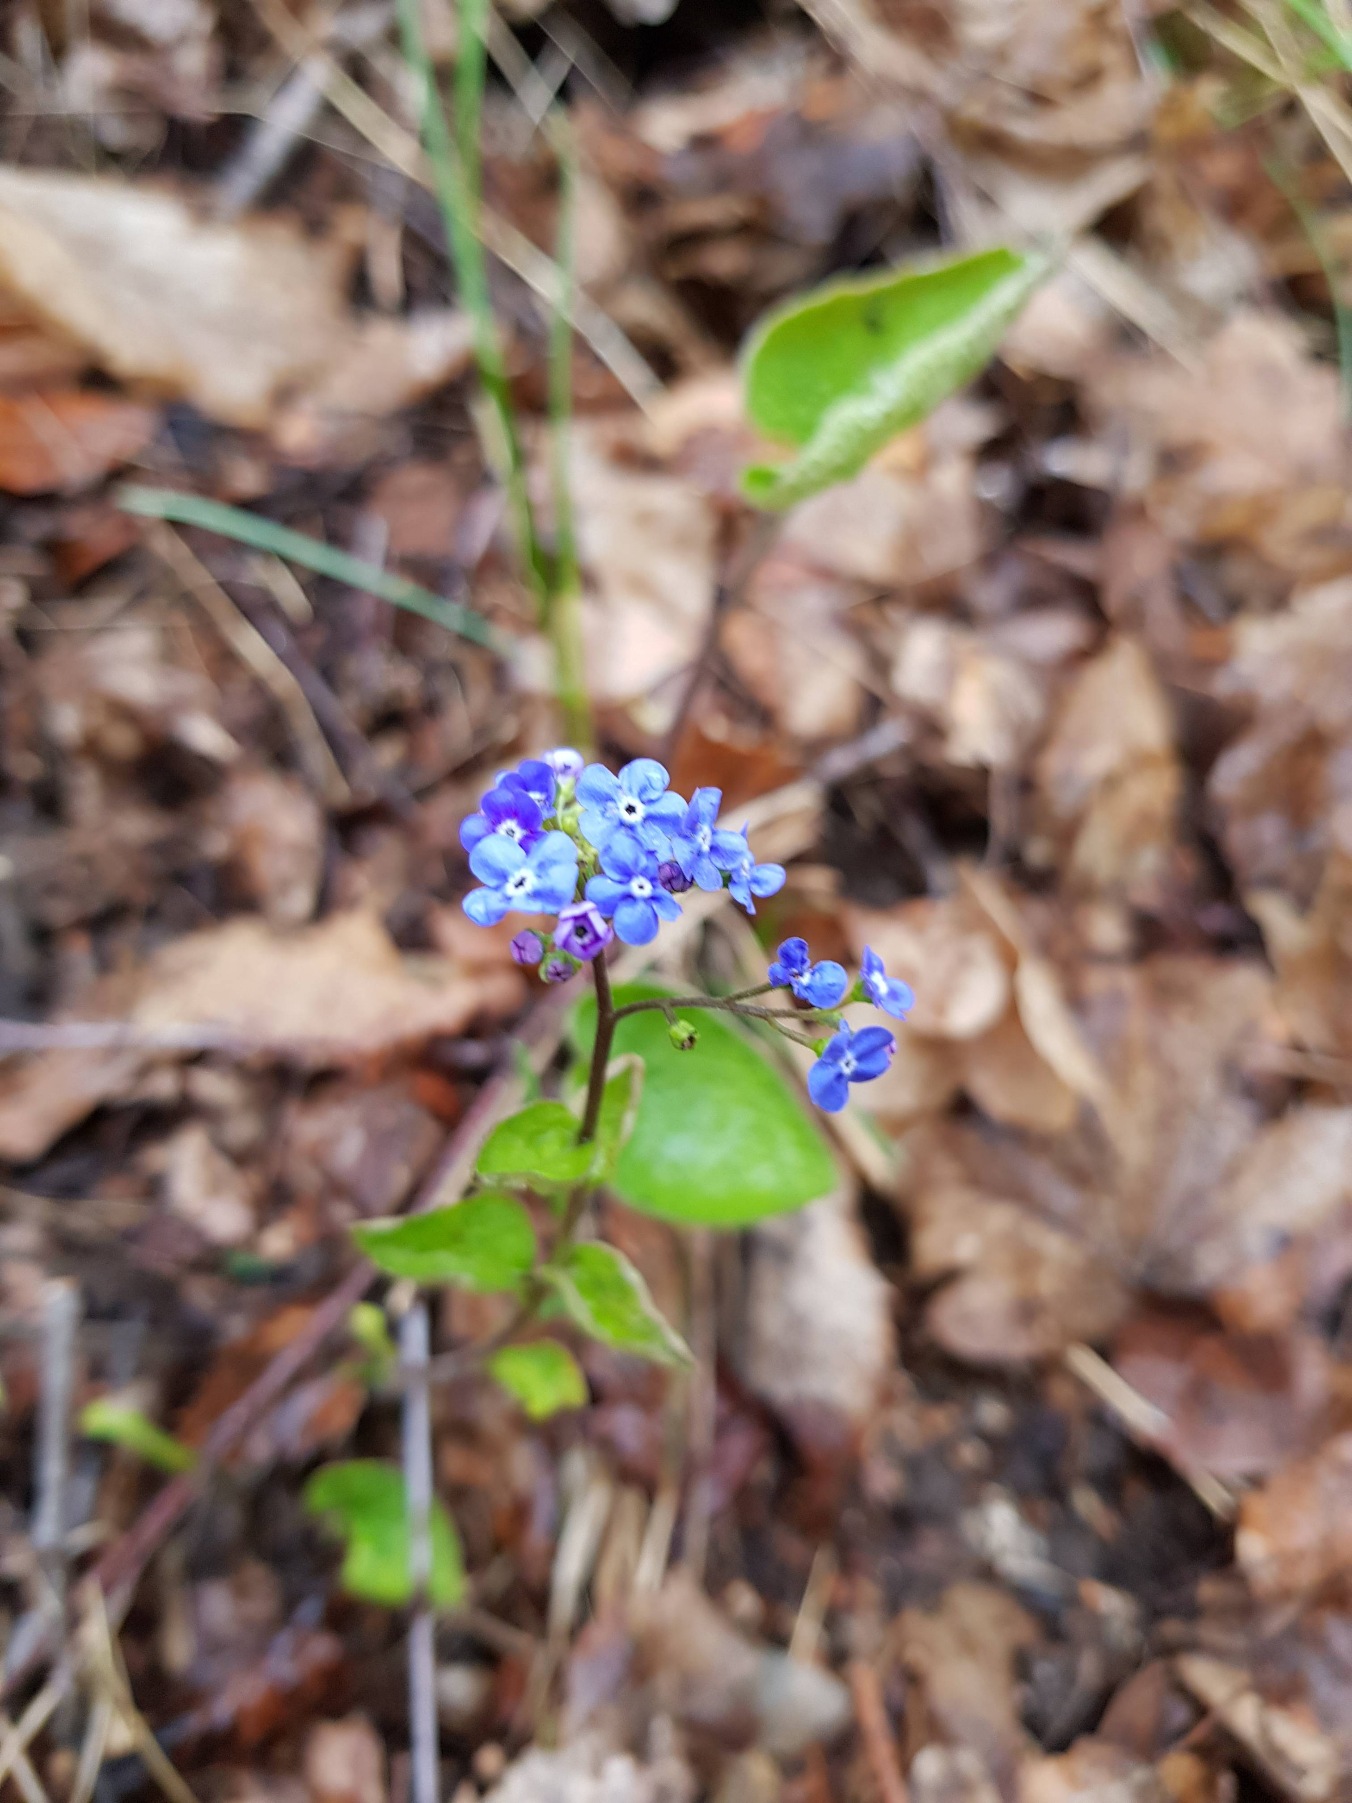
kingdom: Plantae
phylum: Tracheophyta
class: Magnoliopsida
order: Boraginales
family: Boraginaceae
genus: Brunnera
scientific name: Brunnera macrophylla
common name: Kærmindesøster
